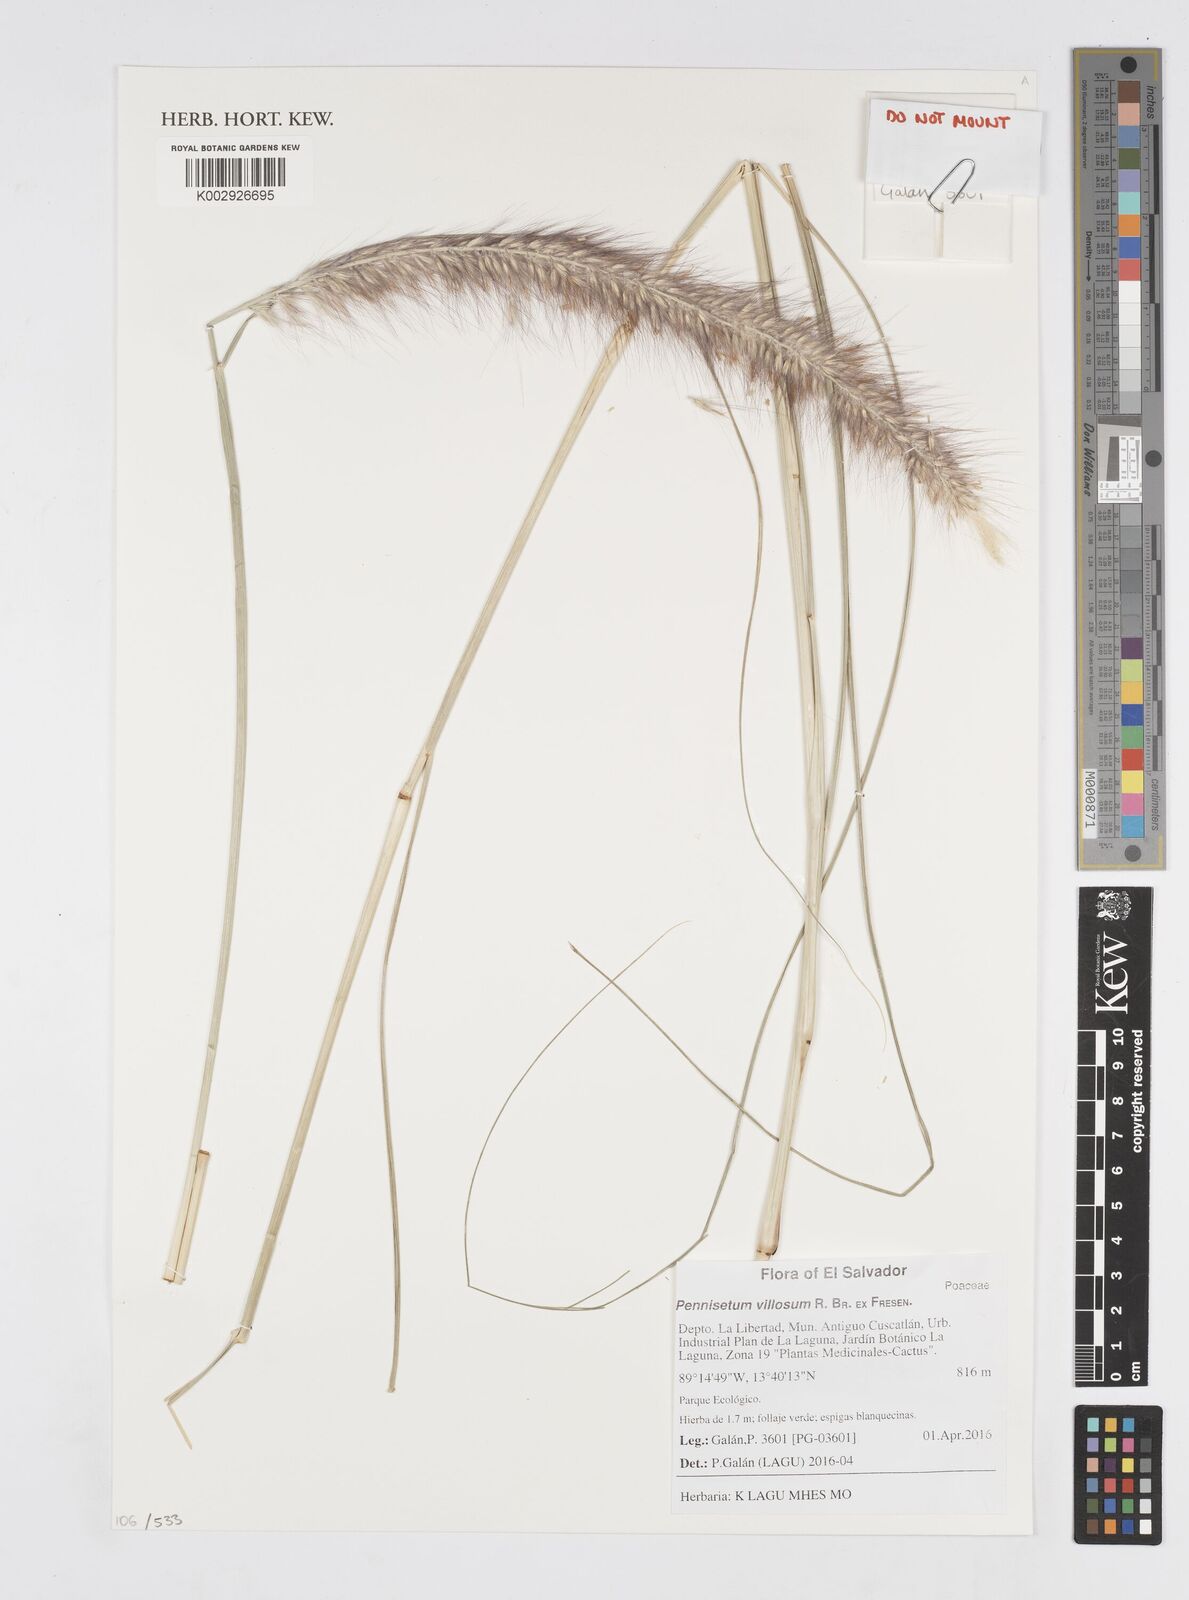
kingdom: Plantae
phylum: Tracheophyta
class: Liliopsida
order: Poales
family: Poaceae
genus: Cenchrus
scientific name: Cenchrus longisetus
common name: Feathertop
